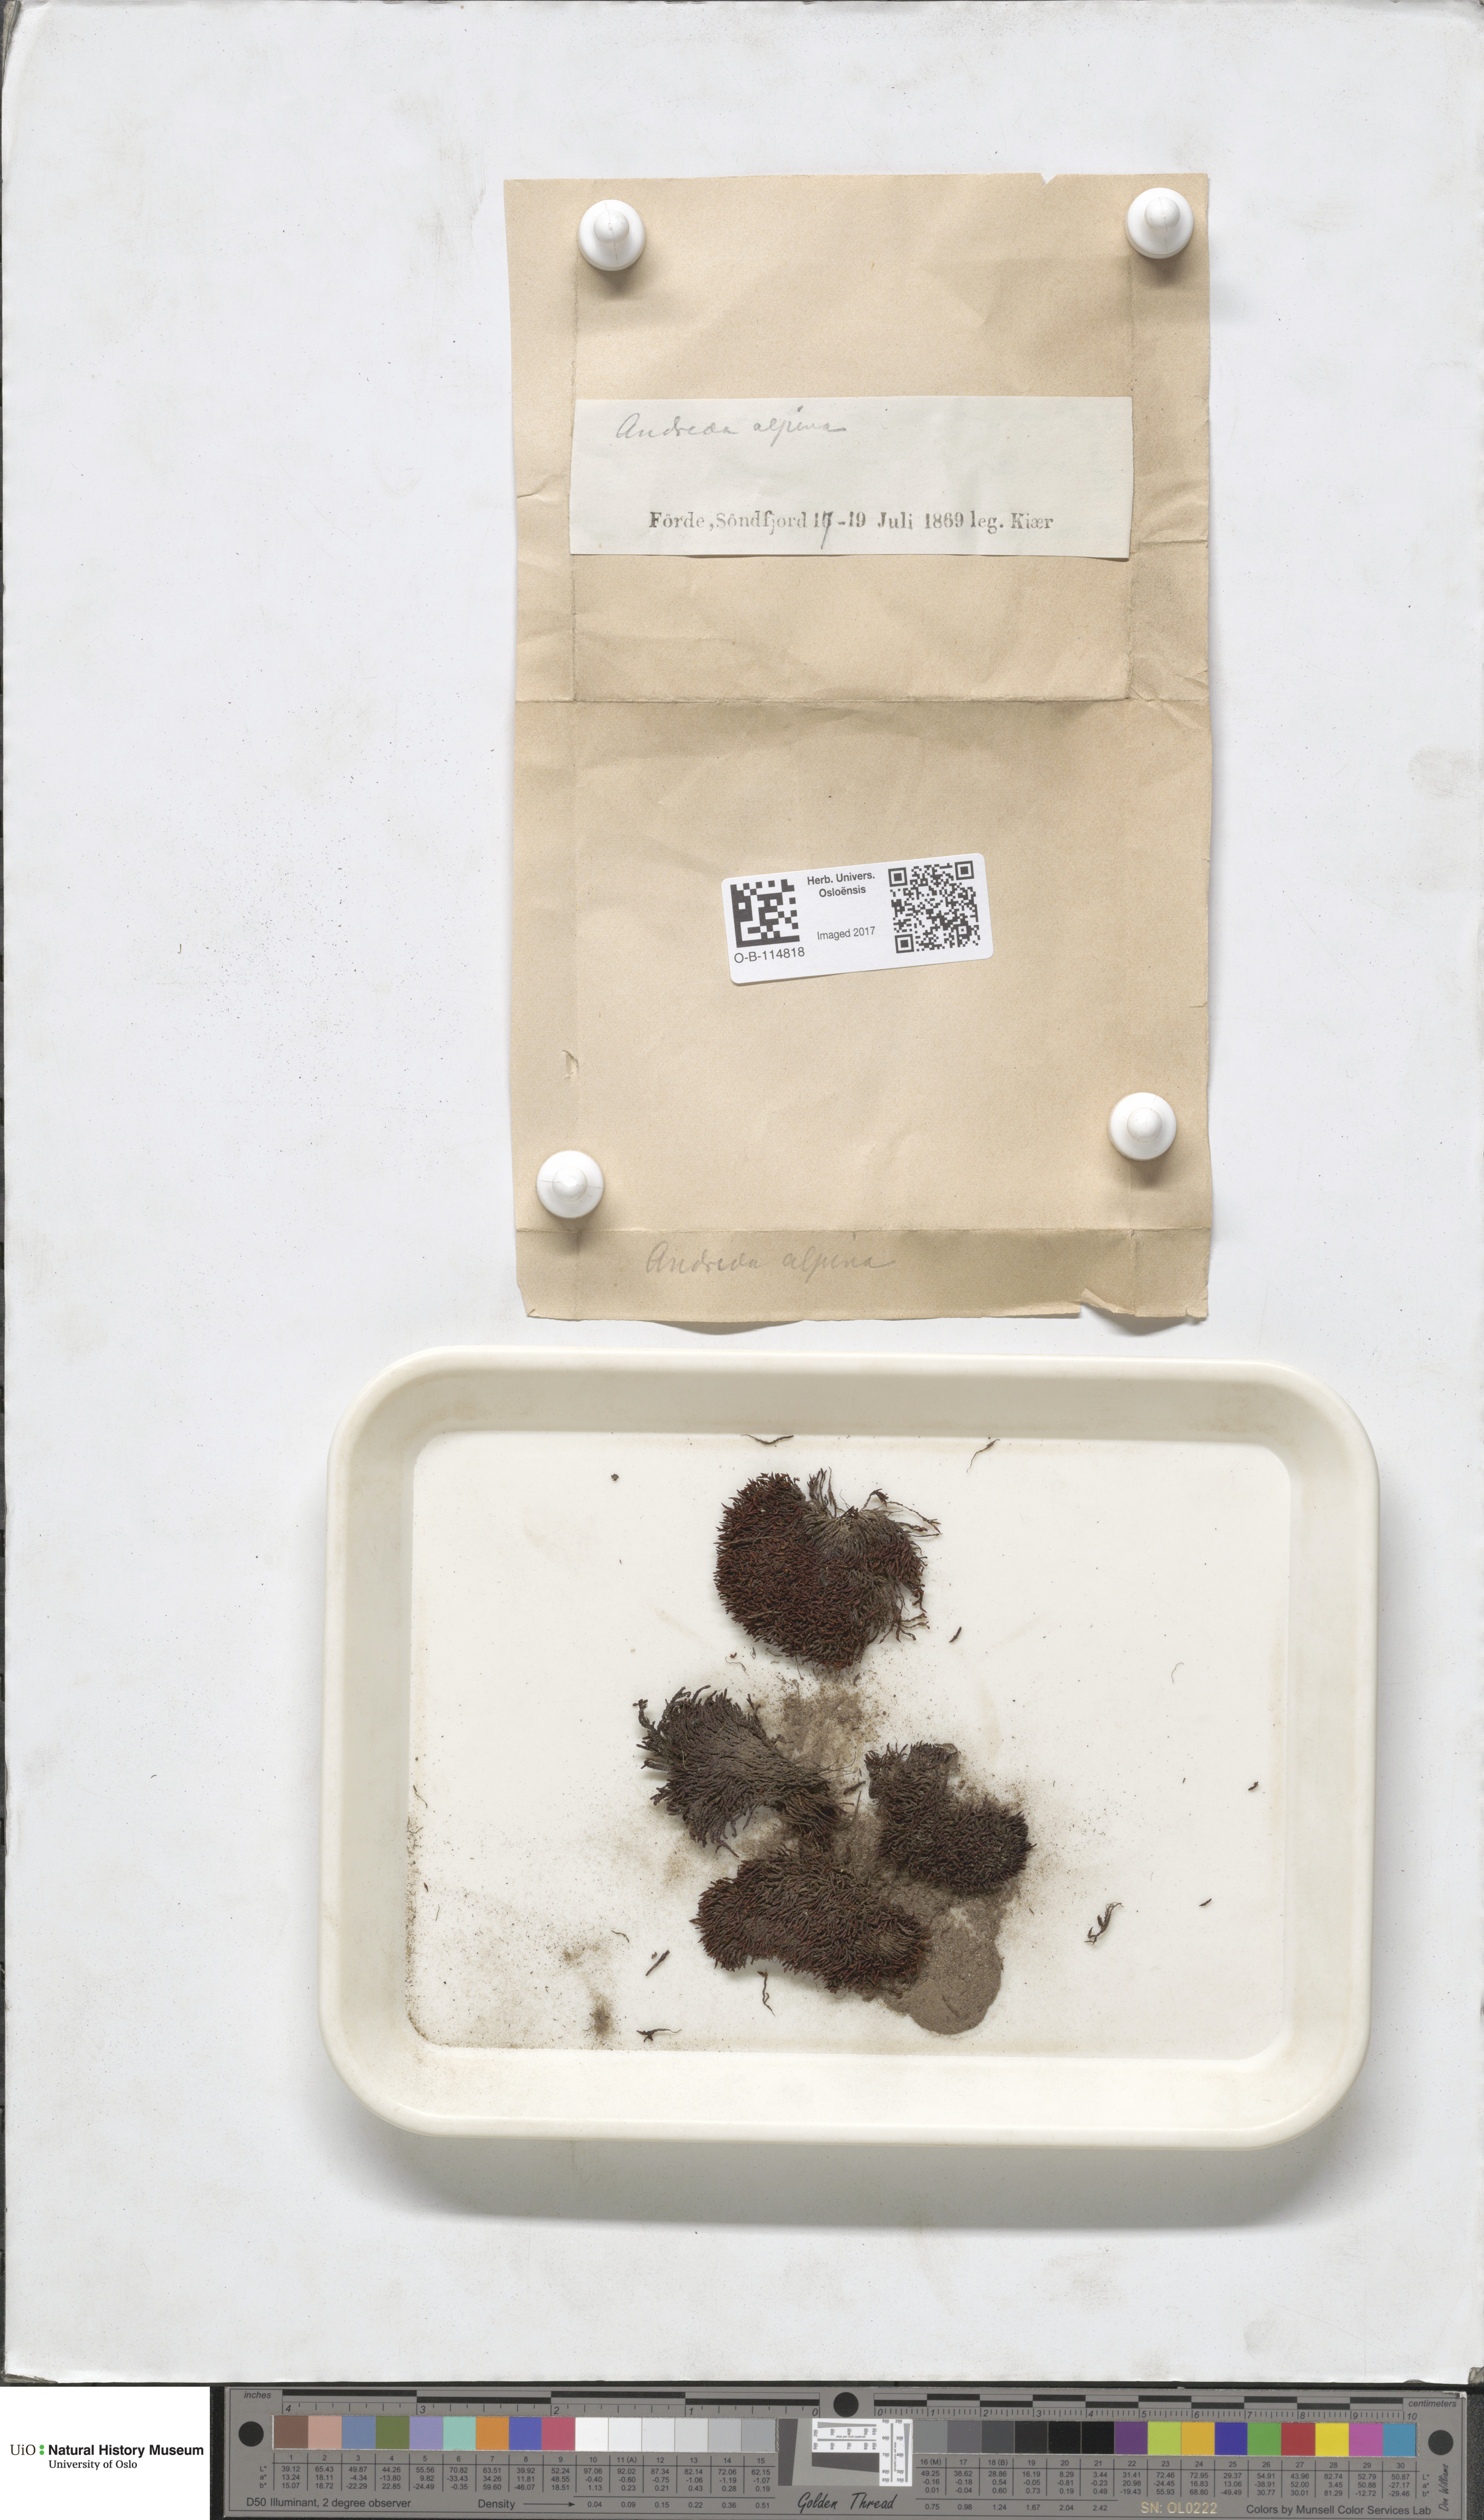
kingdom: Plantae
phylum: Bryophyta
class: Andreaeopsida
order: Andreaeales
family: Andreaeaceae
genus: Andreaea
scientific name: Andreaea hookeri
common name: Alpine rock-moss
